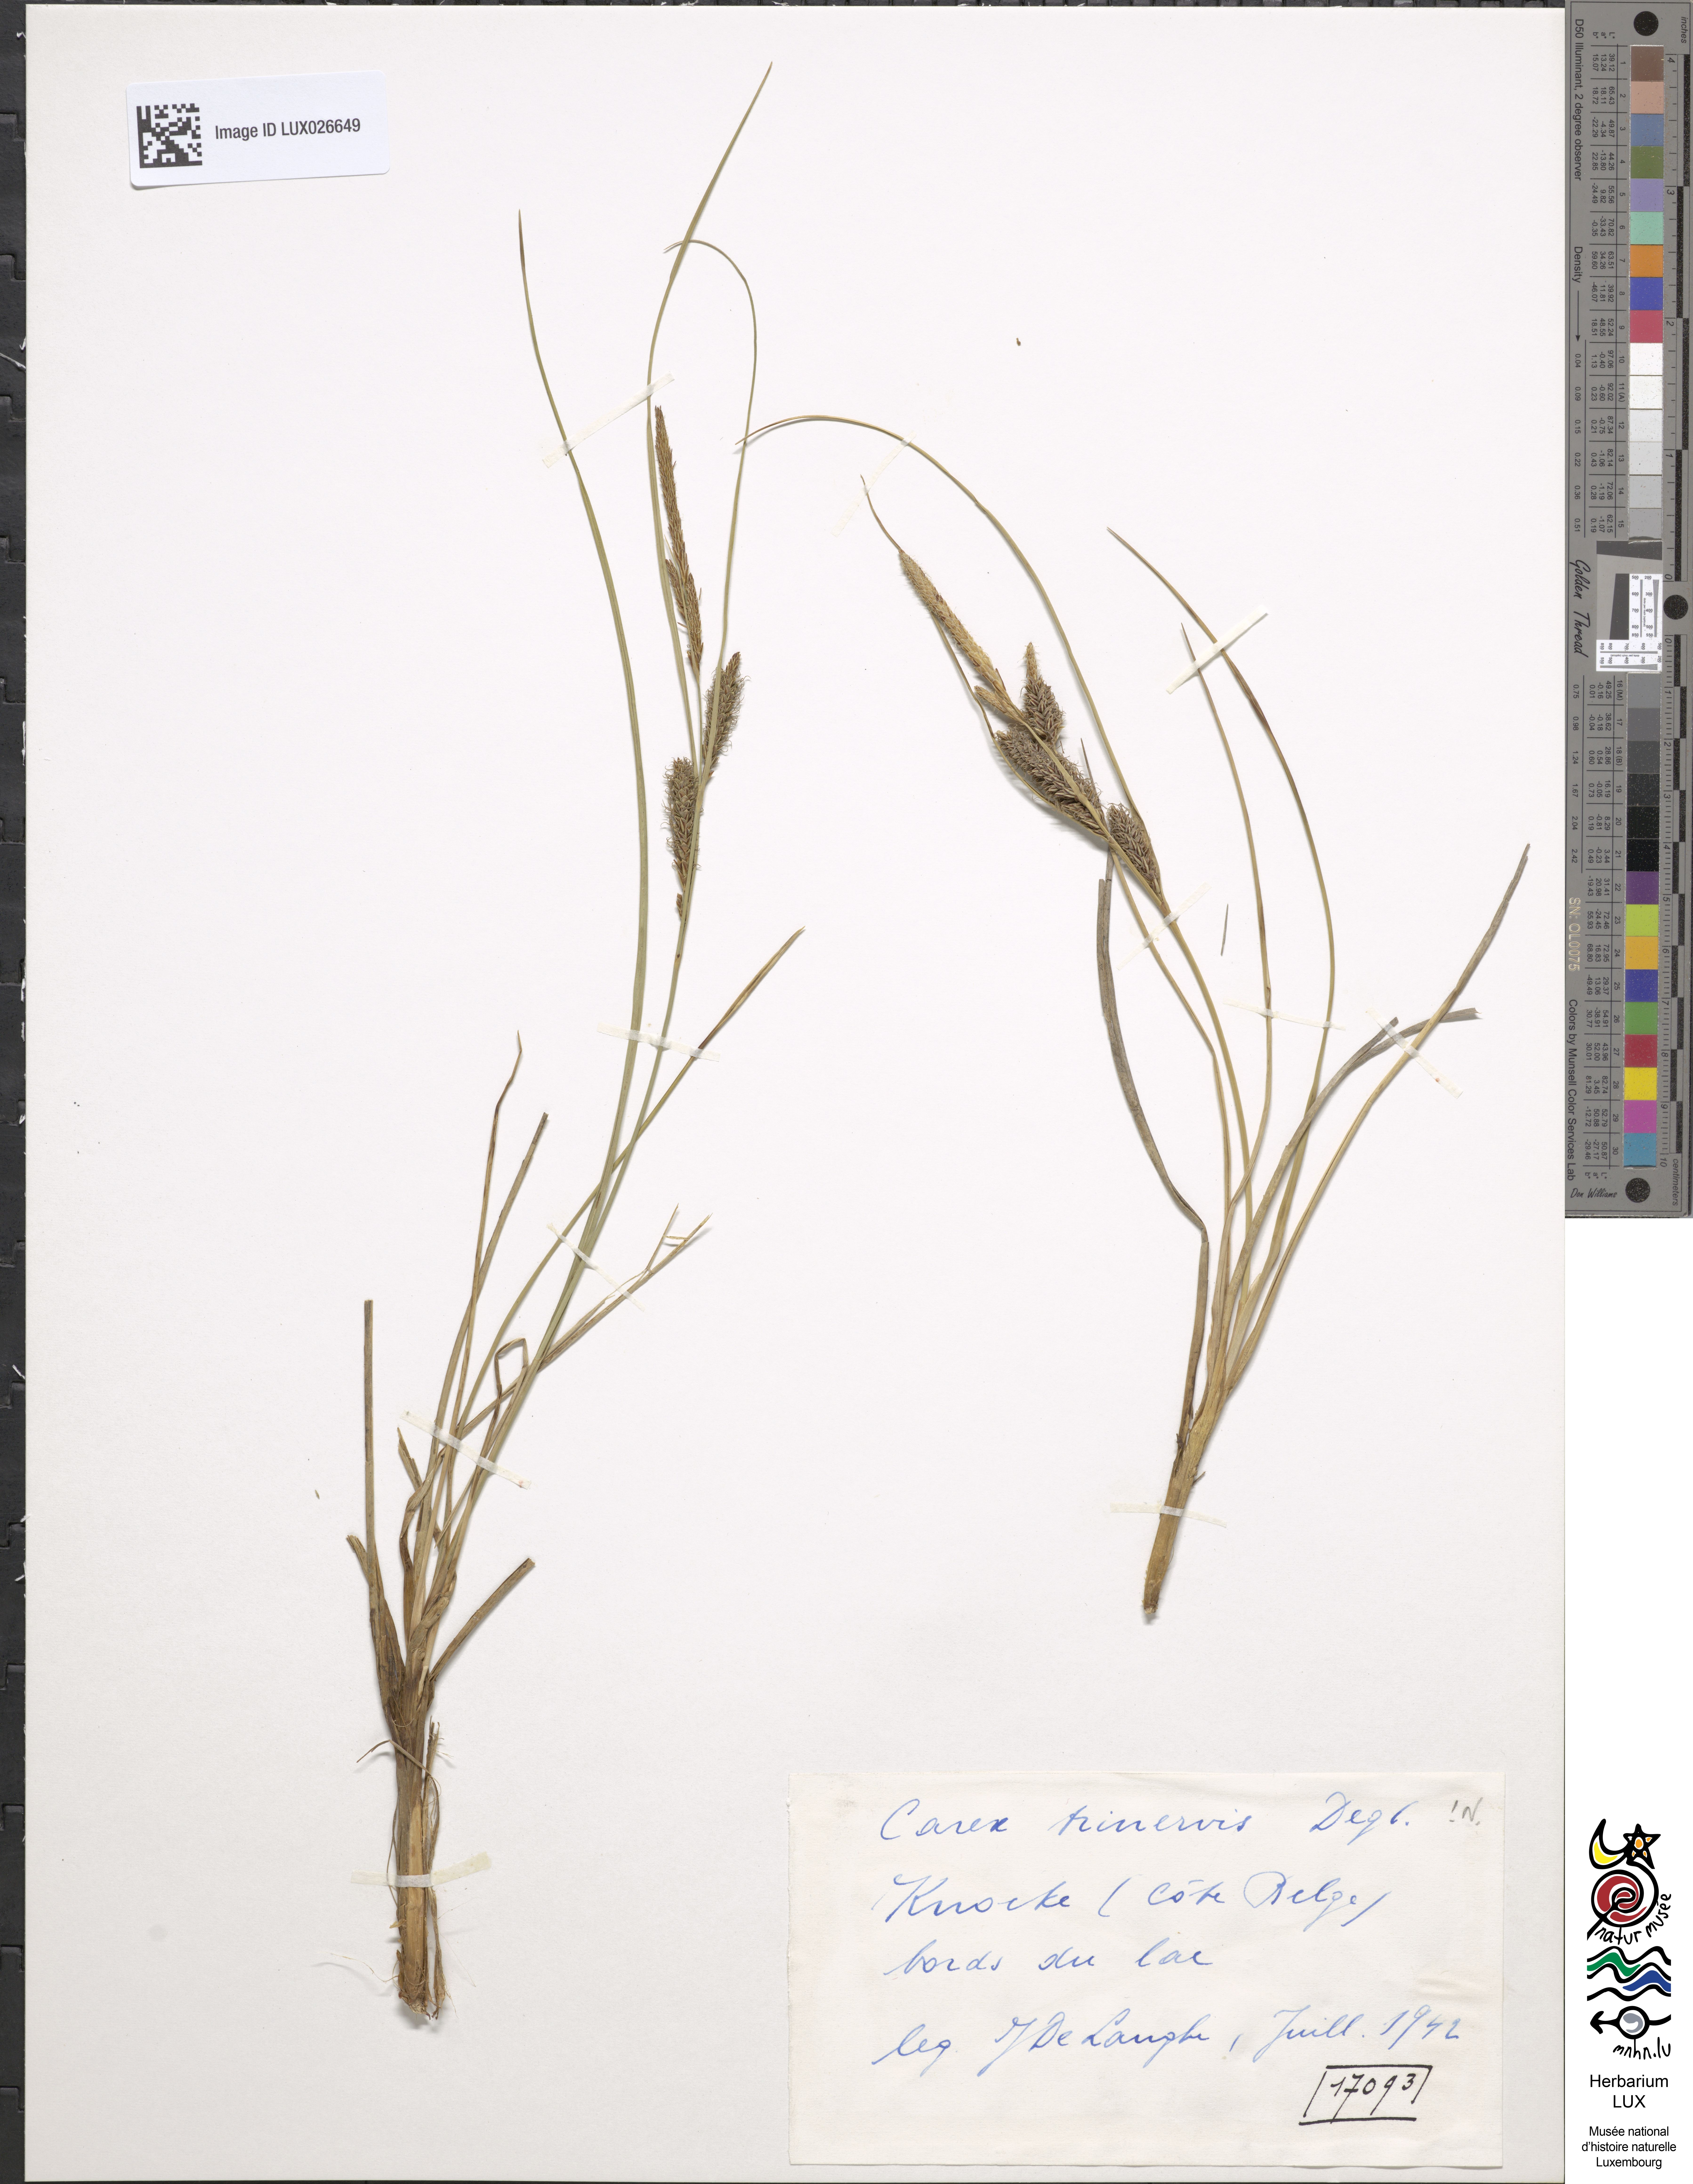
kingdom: Plantae
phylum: Tracheophyta
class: Liliopsida
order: Poales
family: Cyperaceae
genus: Carex
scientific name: Carex trinervis
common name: Three-nerved sedge
